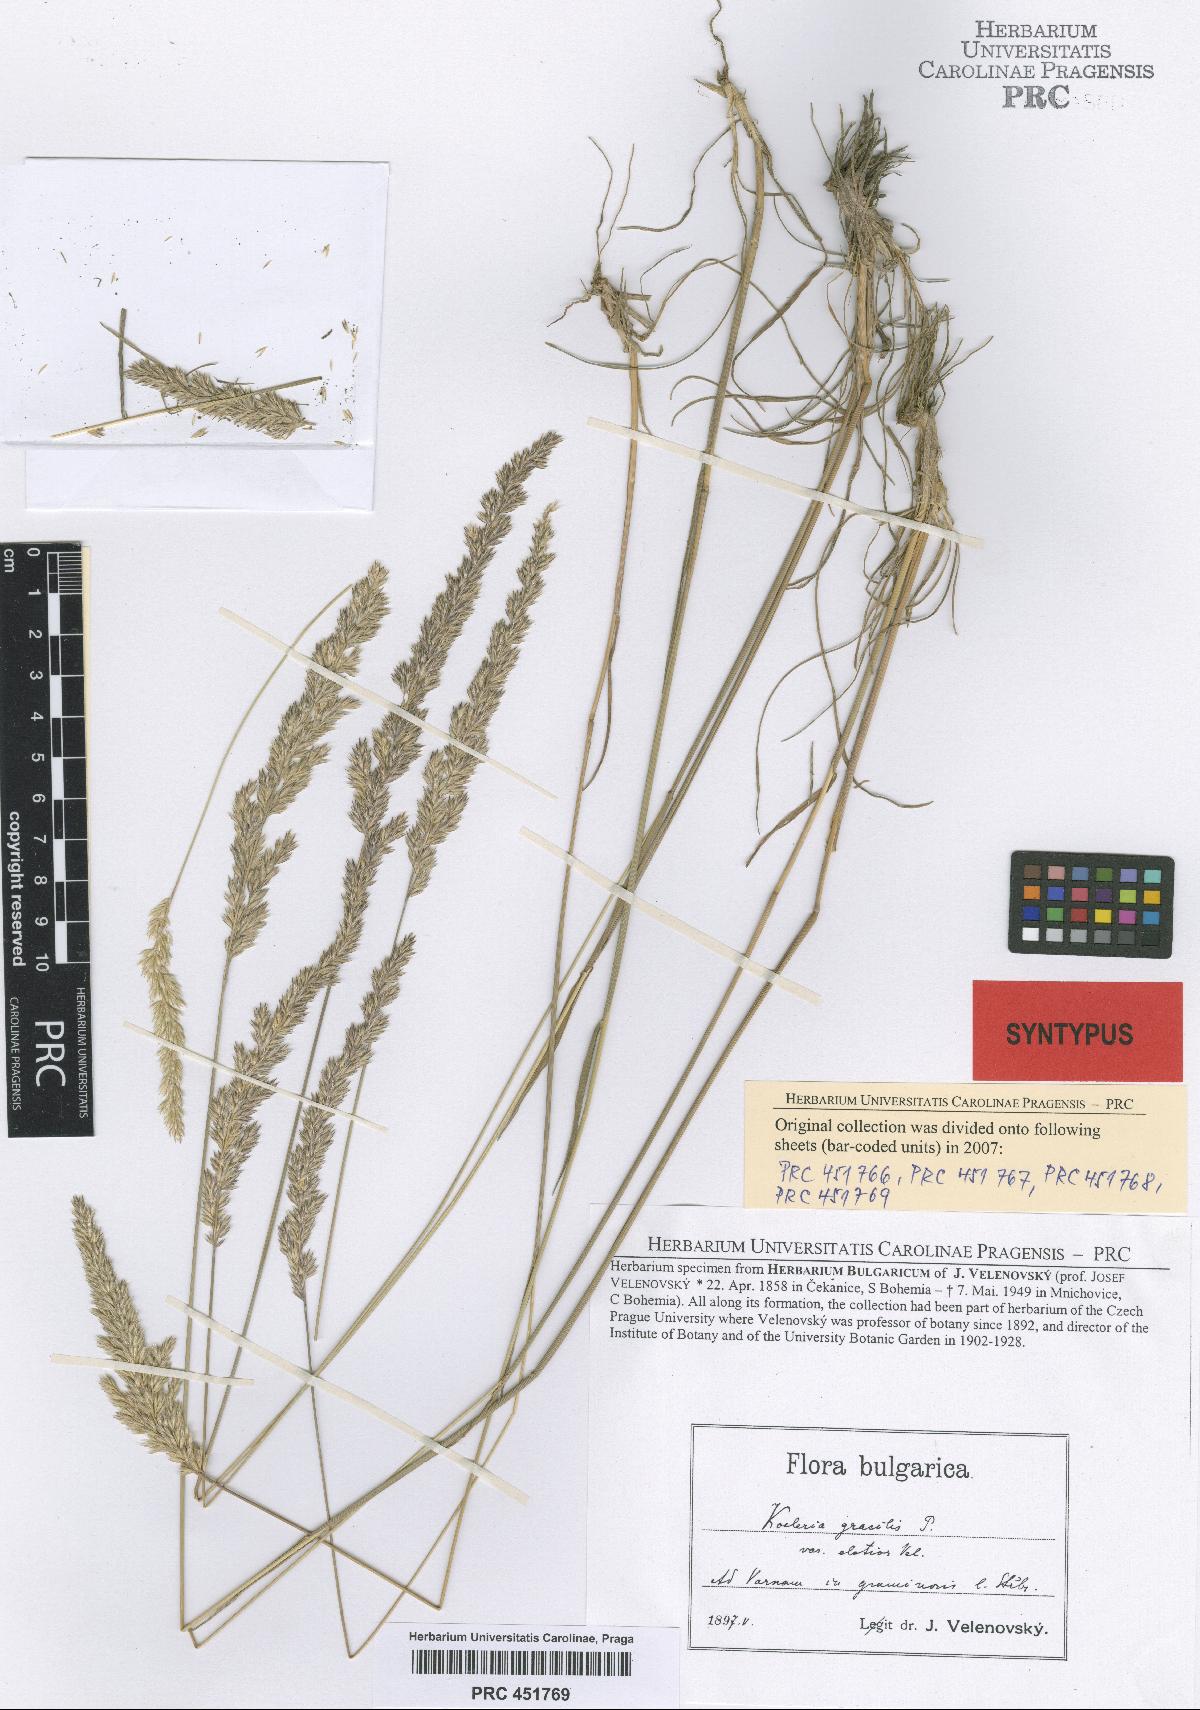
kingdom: Plantae
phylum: Tracheophyta
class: Liliopsida
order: Poales
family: Poaceae
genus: Koeleria
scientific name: Koeleria macrantha
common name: Crested hair-grass
